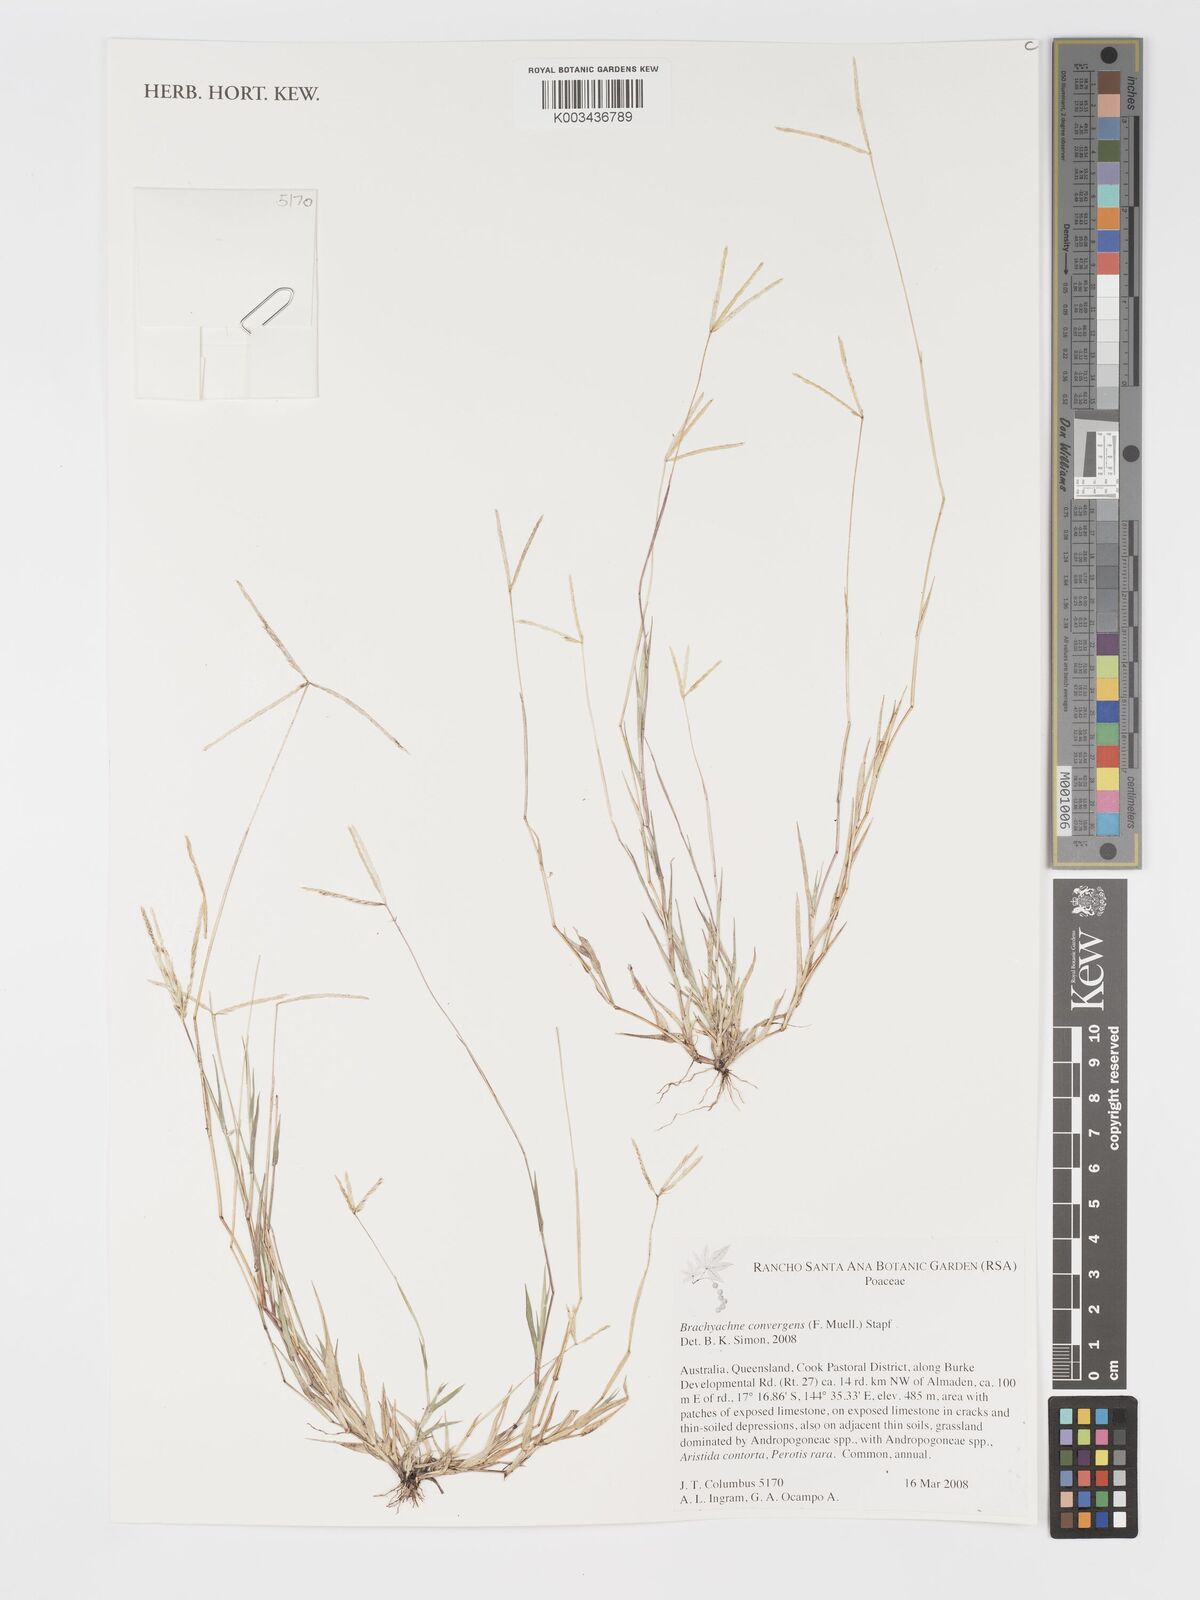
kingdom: Plantae
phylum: Tracheophyta
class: Liliopsida
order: Poales
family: Poaceae
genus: Cynodon
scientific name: Cynodon convergens
